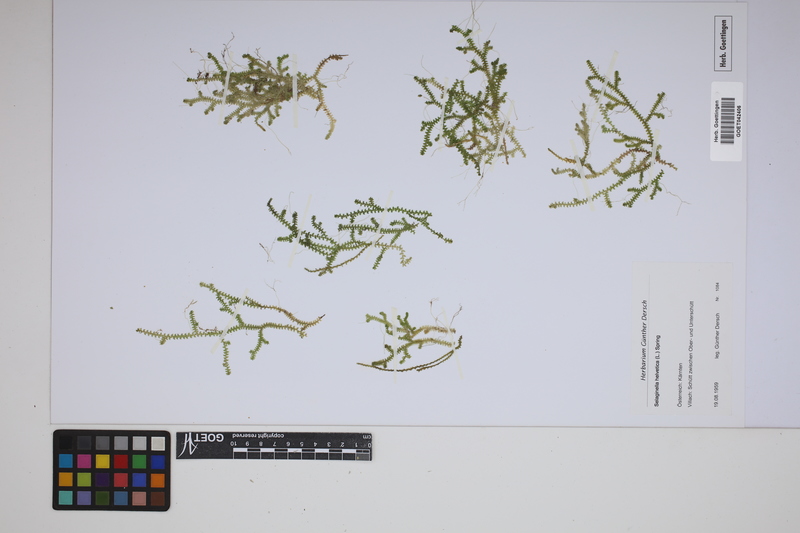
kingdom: Plantae
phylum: Tracheophyta
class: Lycopodiopsida
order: Selaginellales
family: Selaginellaceae
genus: Selaginella
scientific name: Selaginella helvetica
